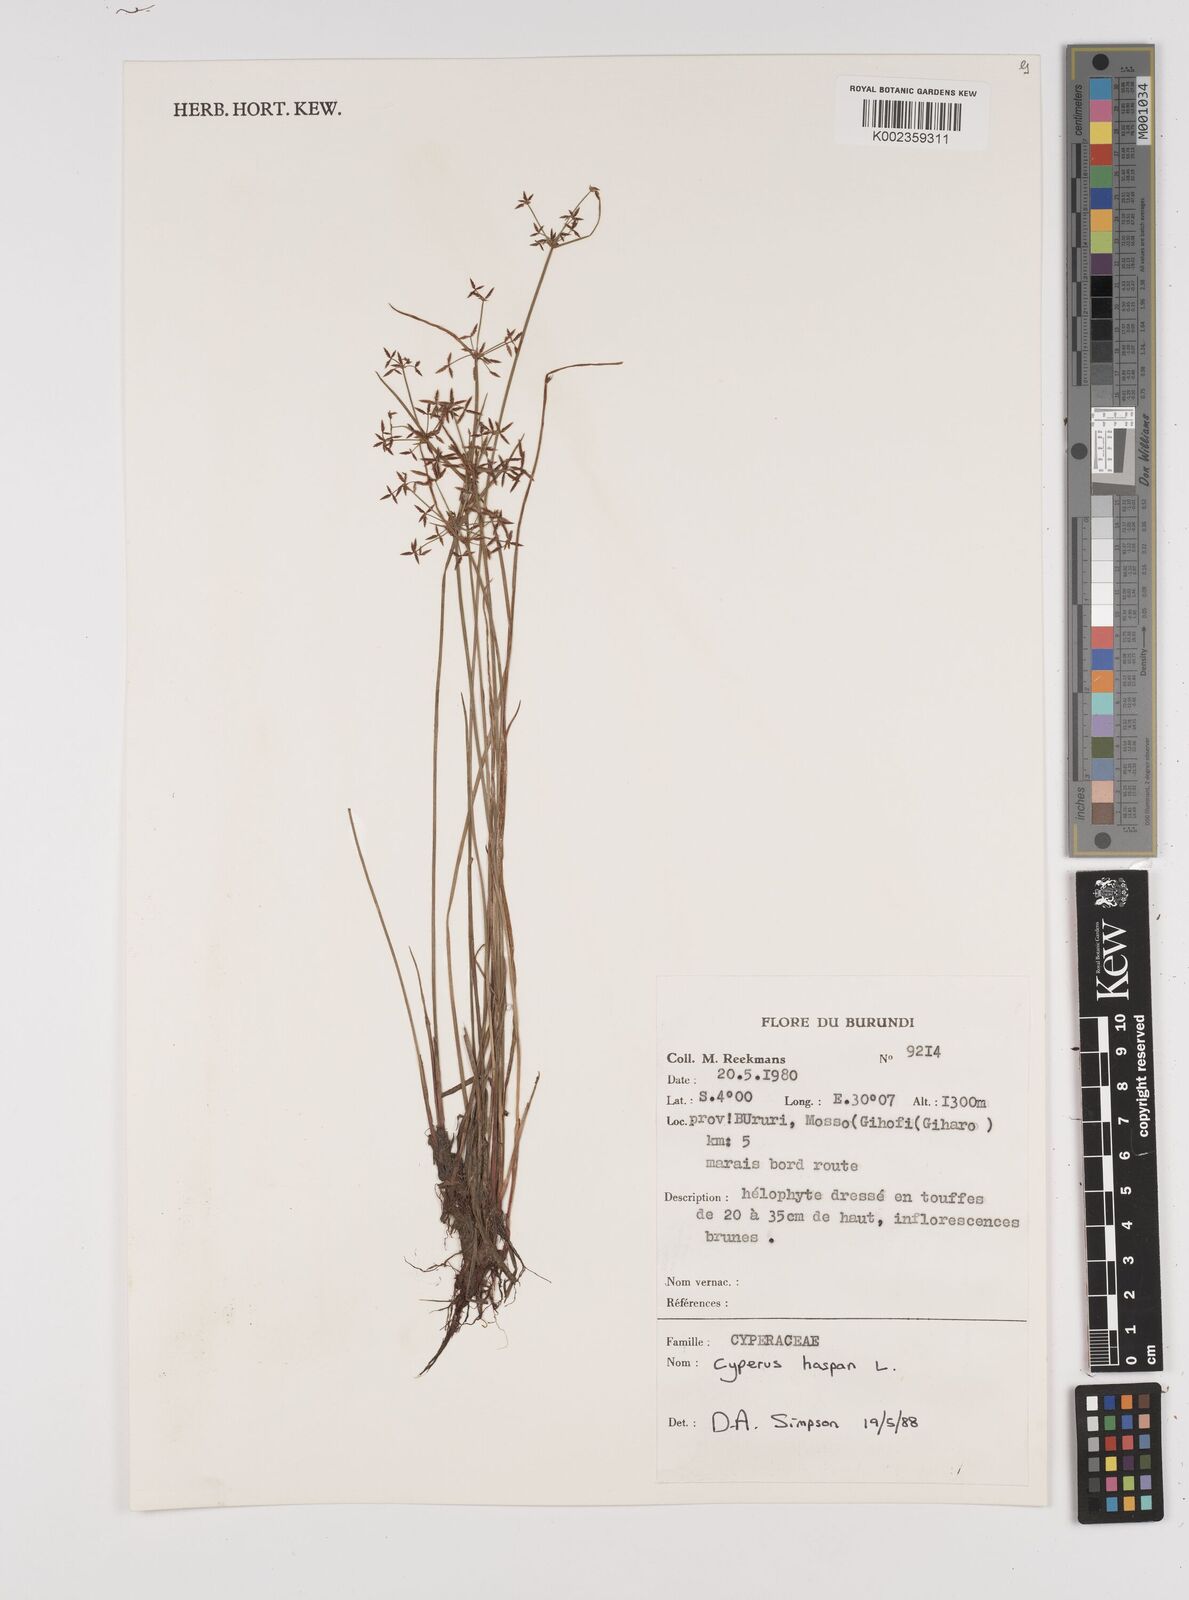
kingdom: Plantae
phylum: Tracheophyta
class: Liliopsida
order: Poales
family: Cyperaceae
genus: Cyperus
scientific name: Cyperus haspan
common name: Haspan flatsedge
